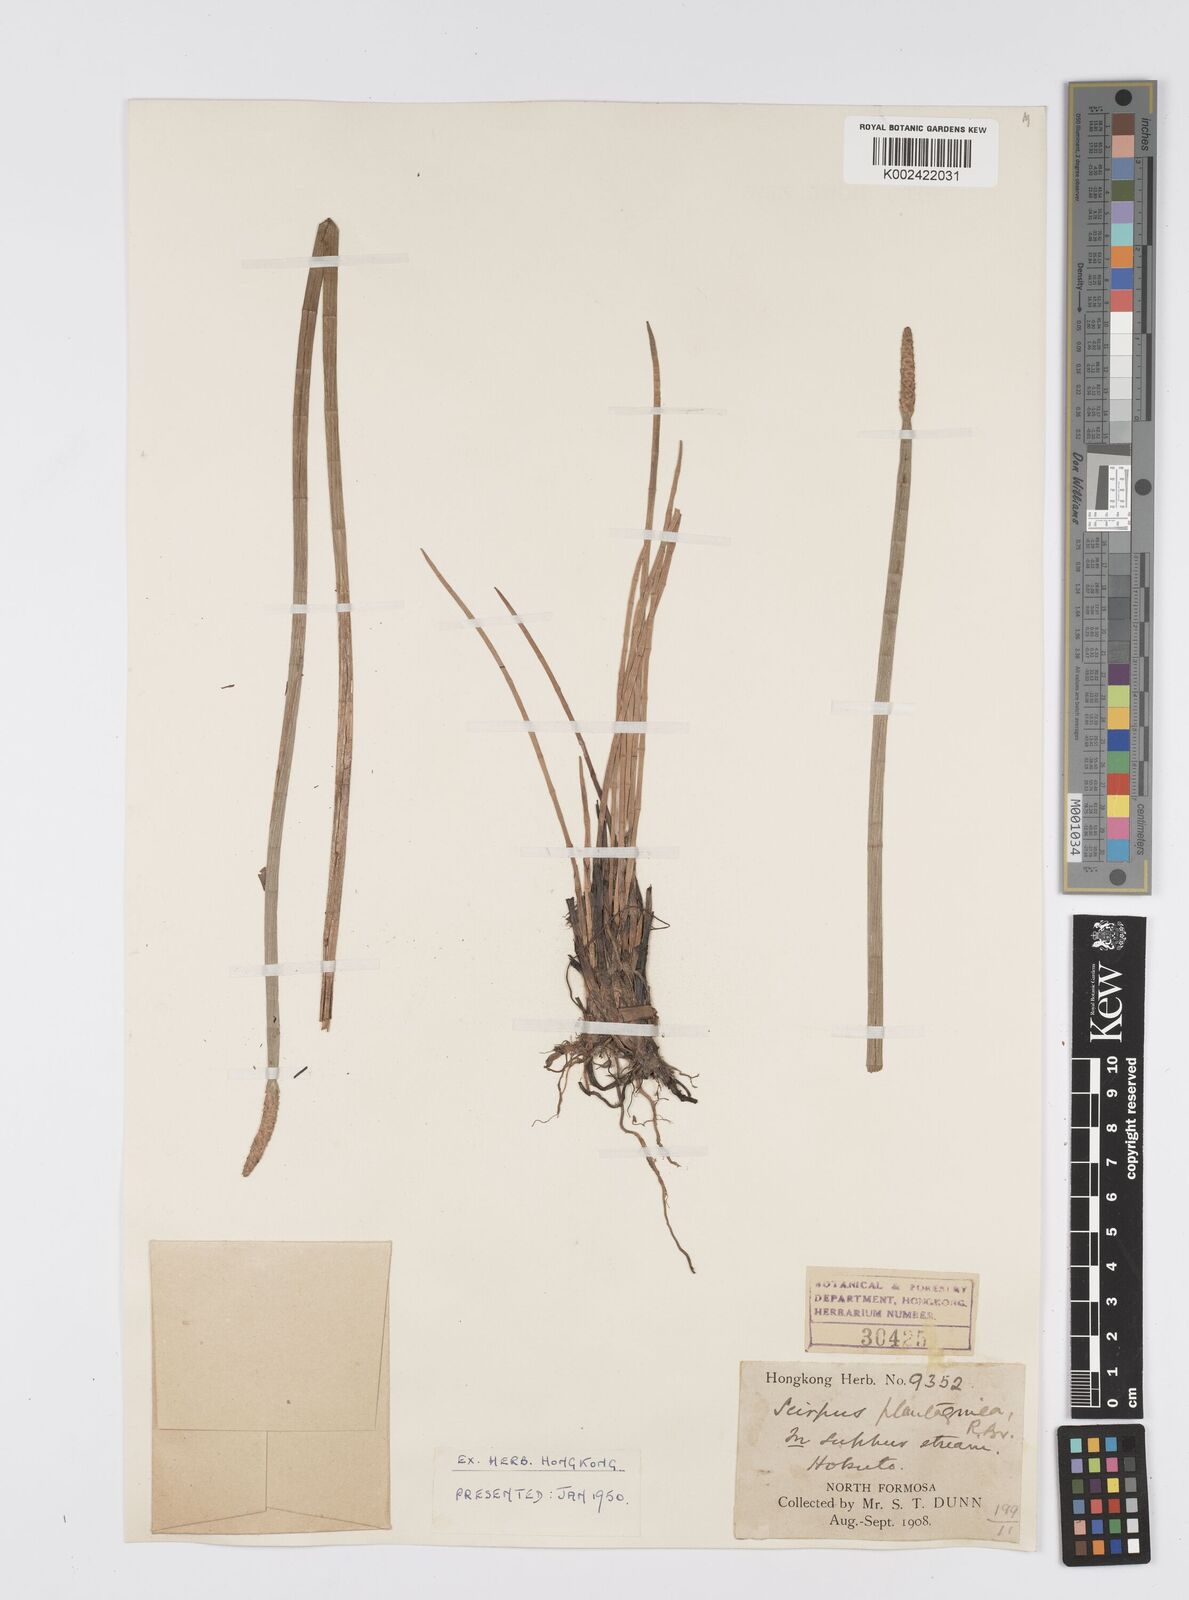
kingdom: Plantae
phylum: Tracheophyta
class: Liliopsida
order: Poales
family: Cyperaceae
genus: Eleocharis
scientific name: Eleocharis dulcis
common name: Chinese water chestnut
